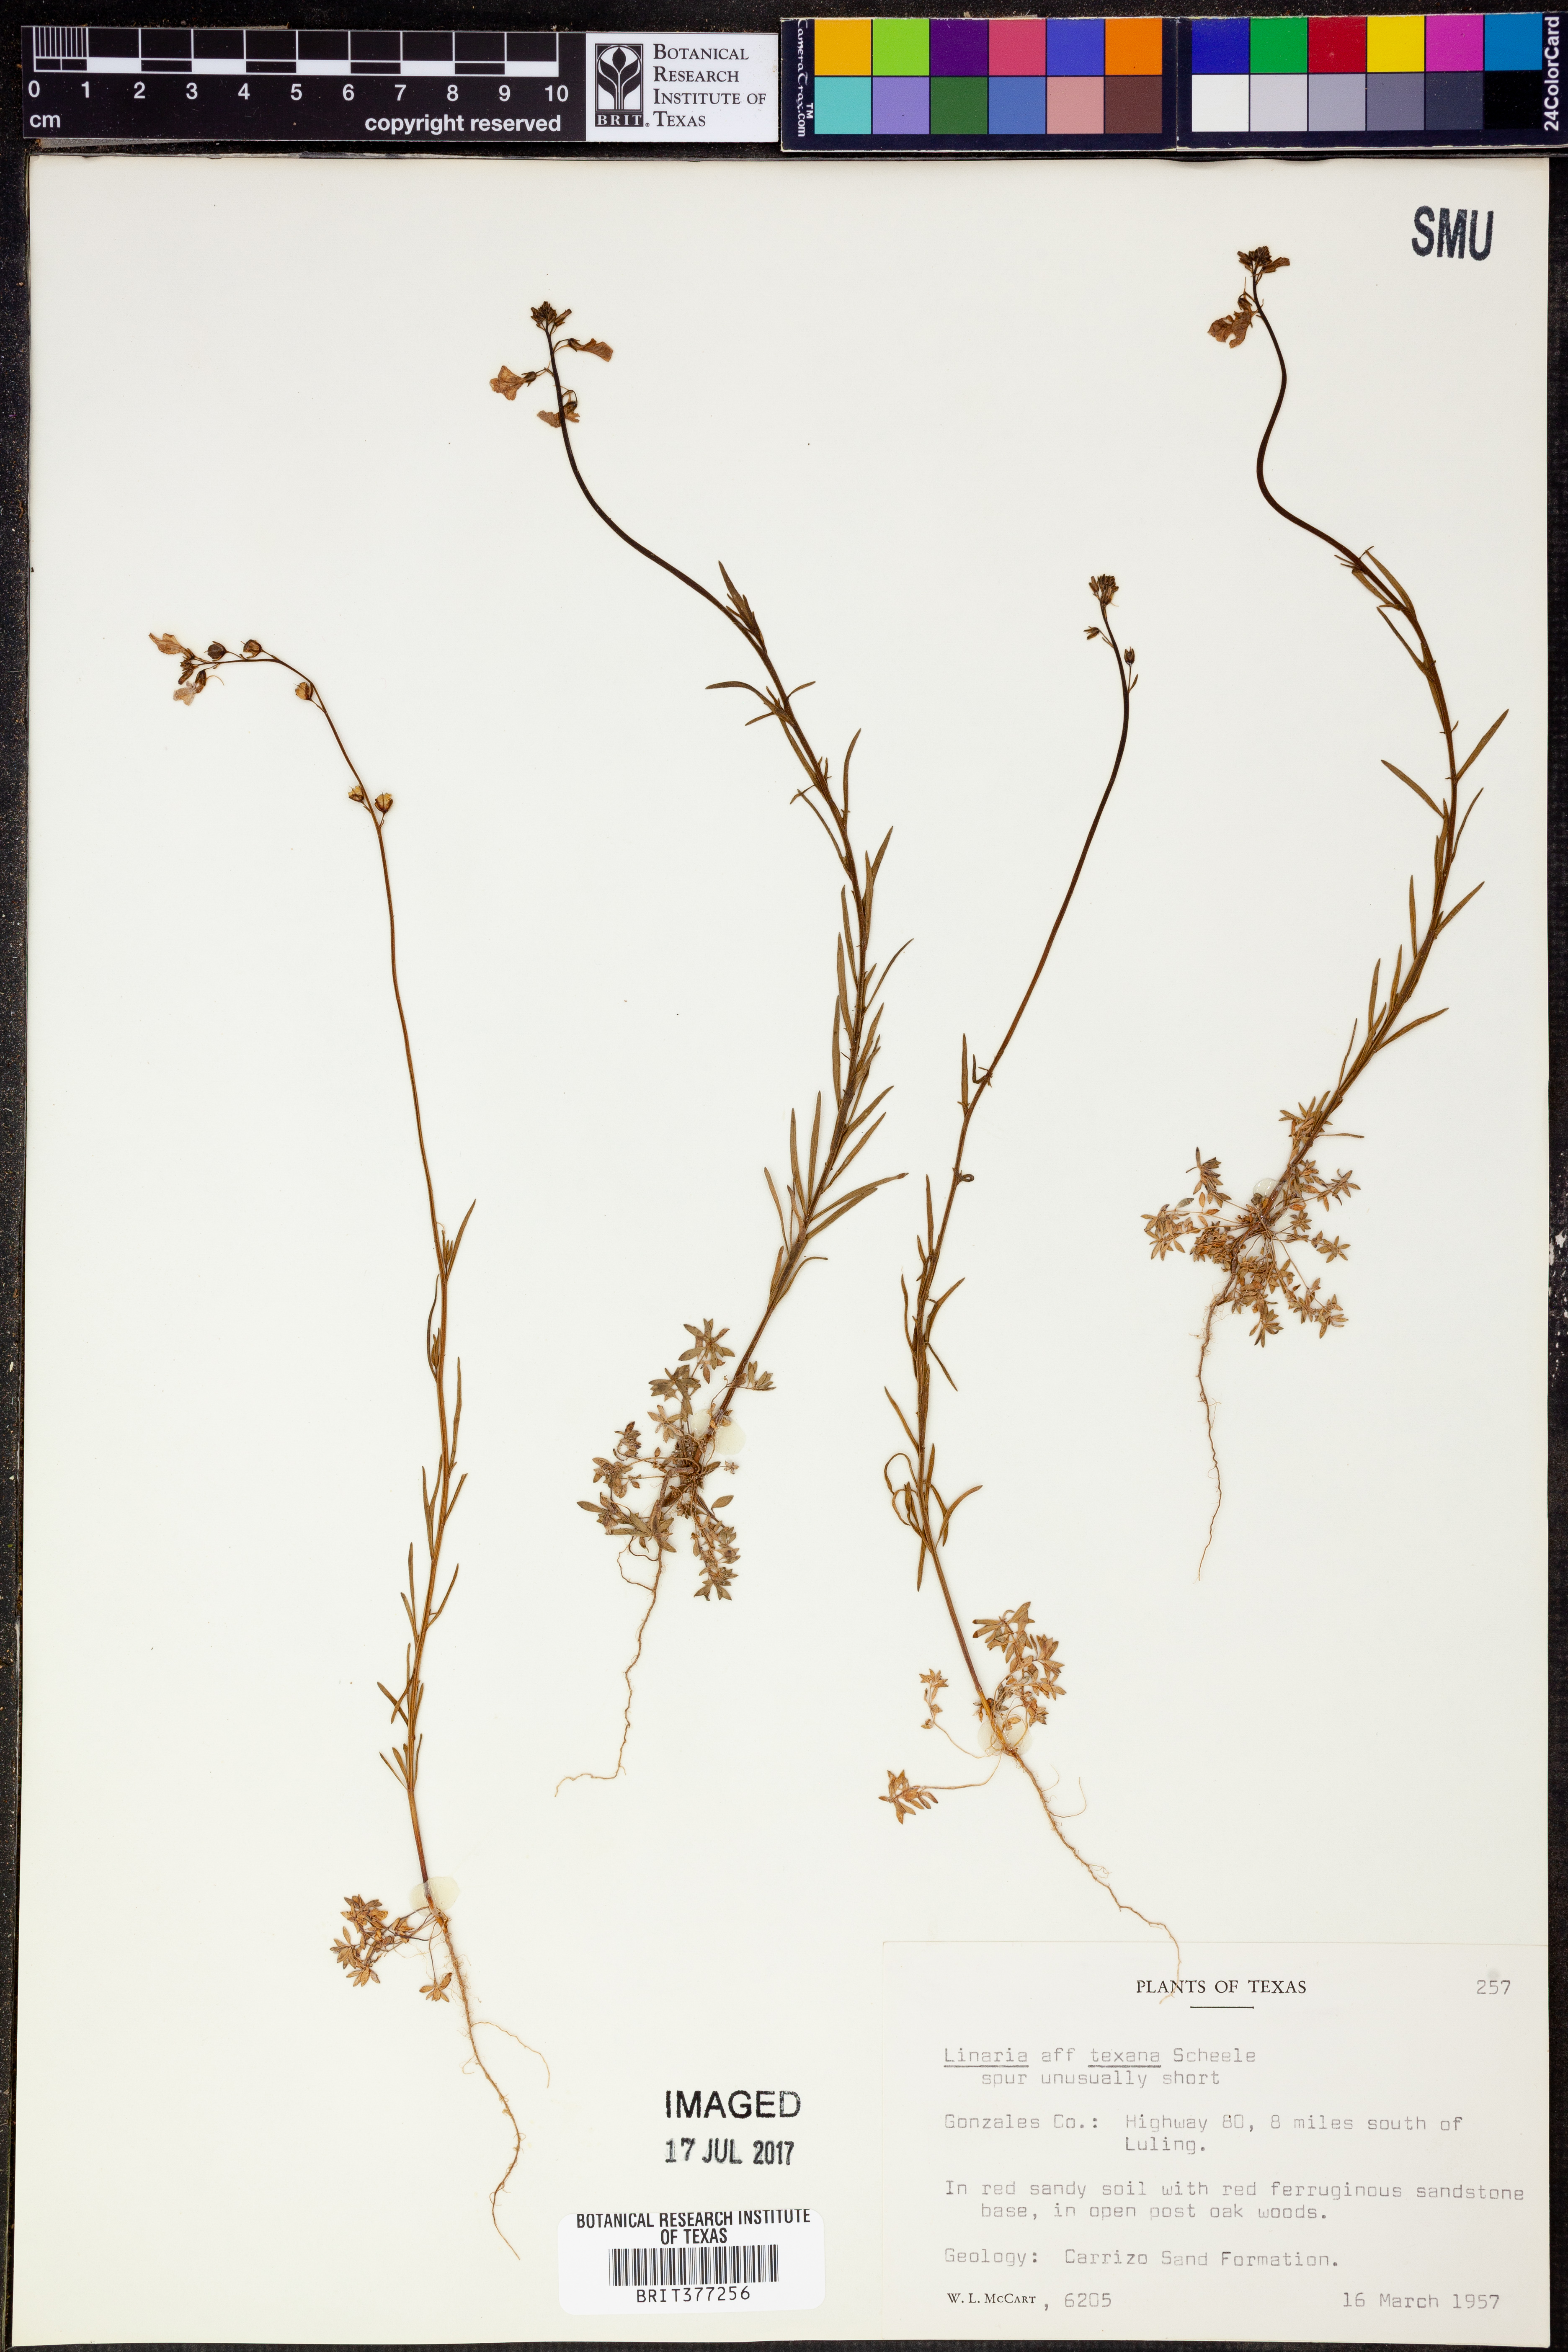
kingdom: Plantae
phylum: Tracheophyta
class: Magnoliopsida
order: Lamiales
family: Plantaginaceae
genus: Nuttallanthus
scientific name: Nuttallanthus texanus
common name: Texas toadflax
